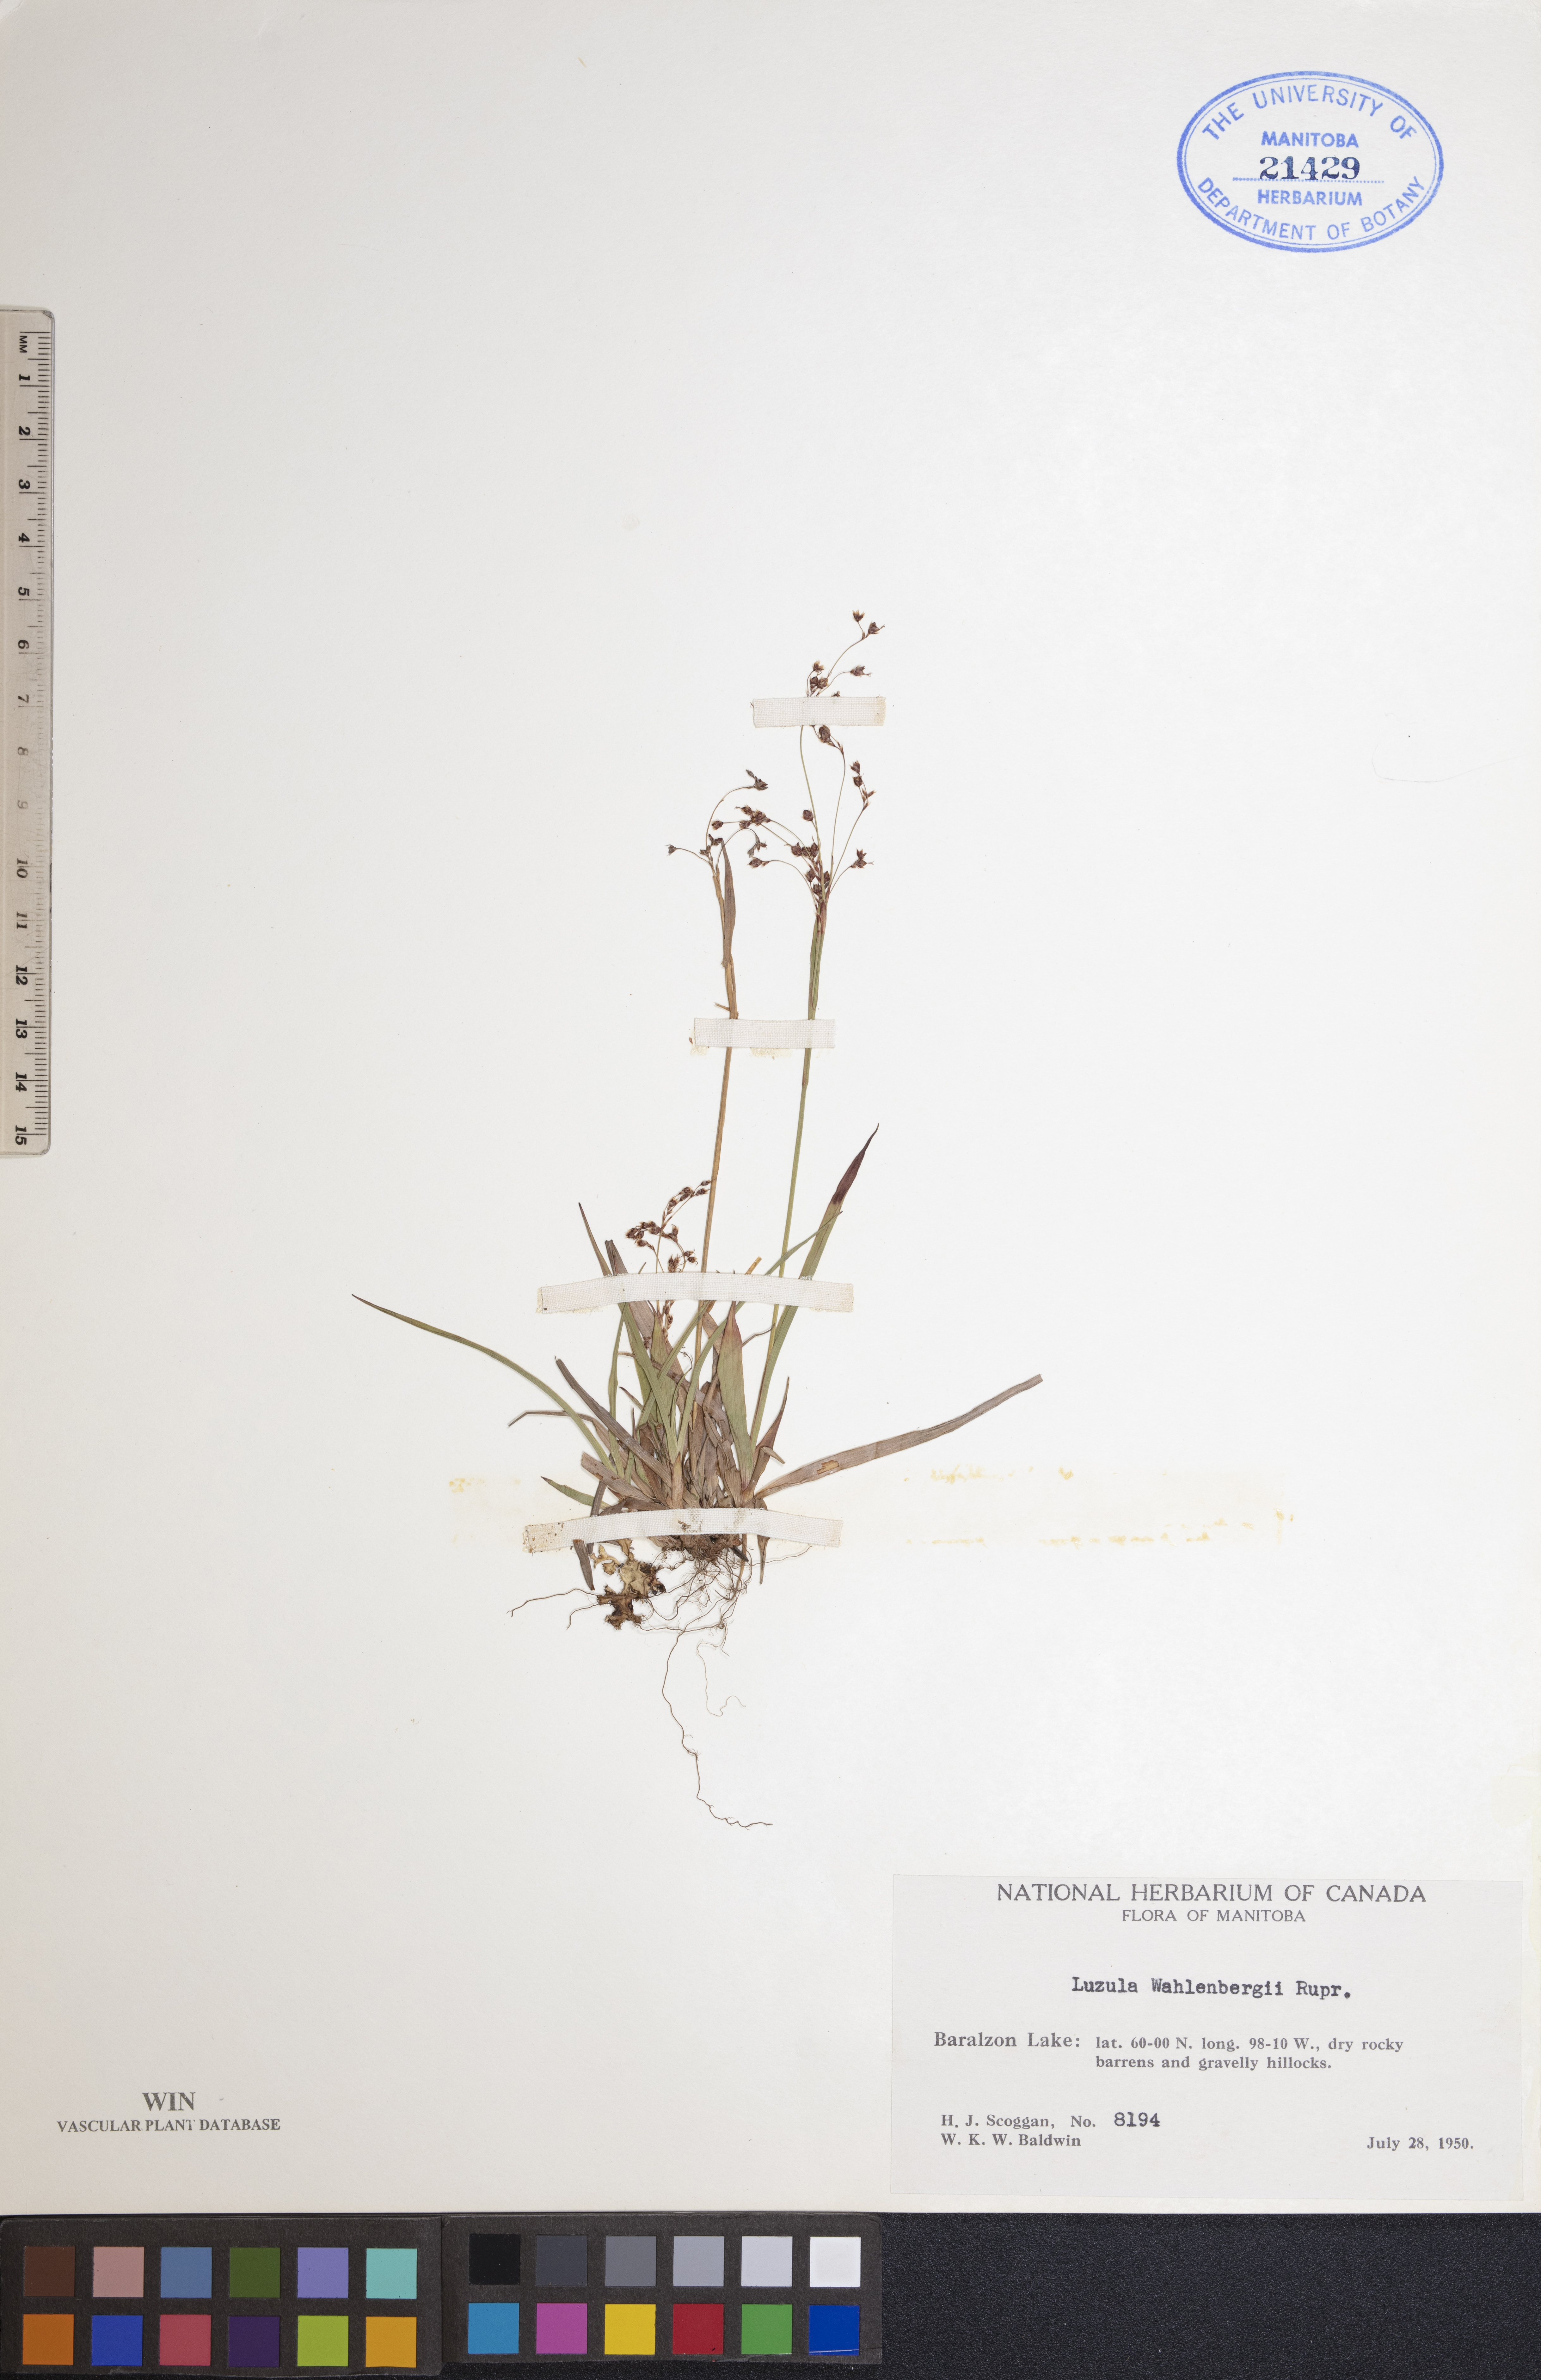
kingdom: Plantae
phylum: Tracheophyta
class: Liliopsida
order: Poales
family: Juncaceae
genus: Luzula
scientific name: Luzula wahlenbergii
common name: Wahlenberg's wood-rush
